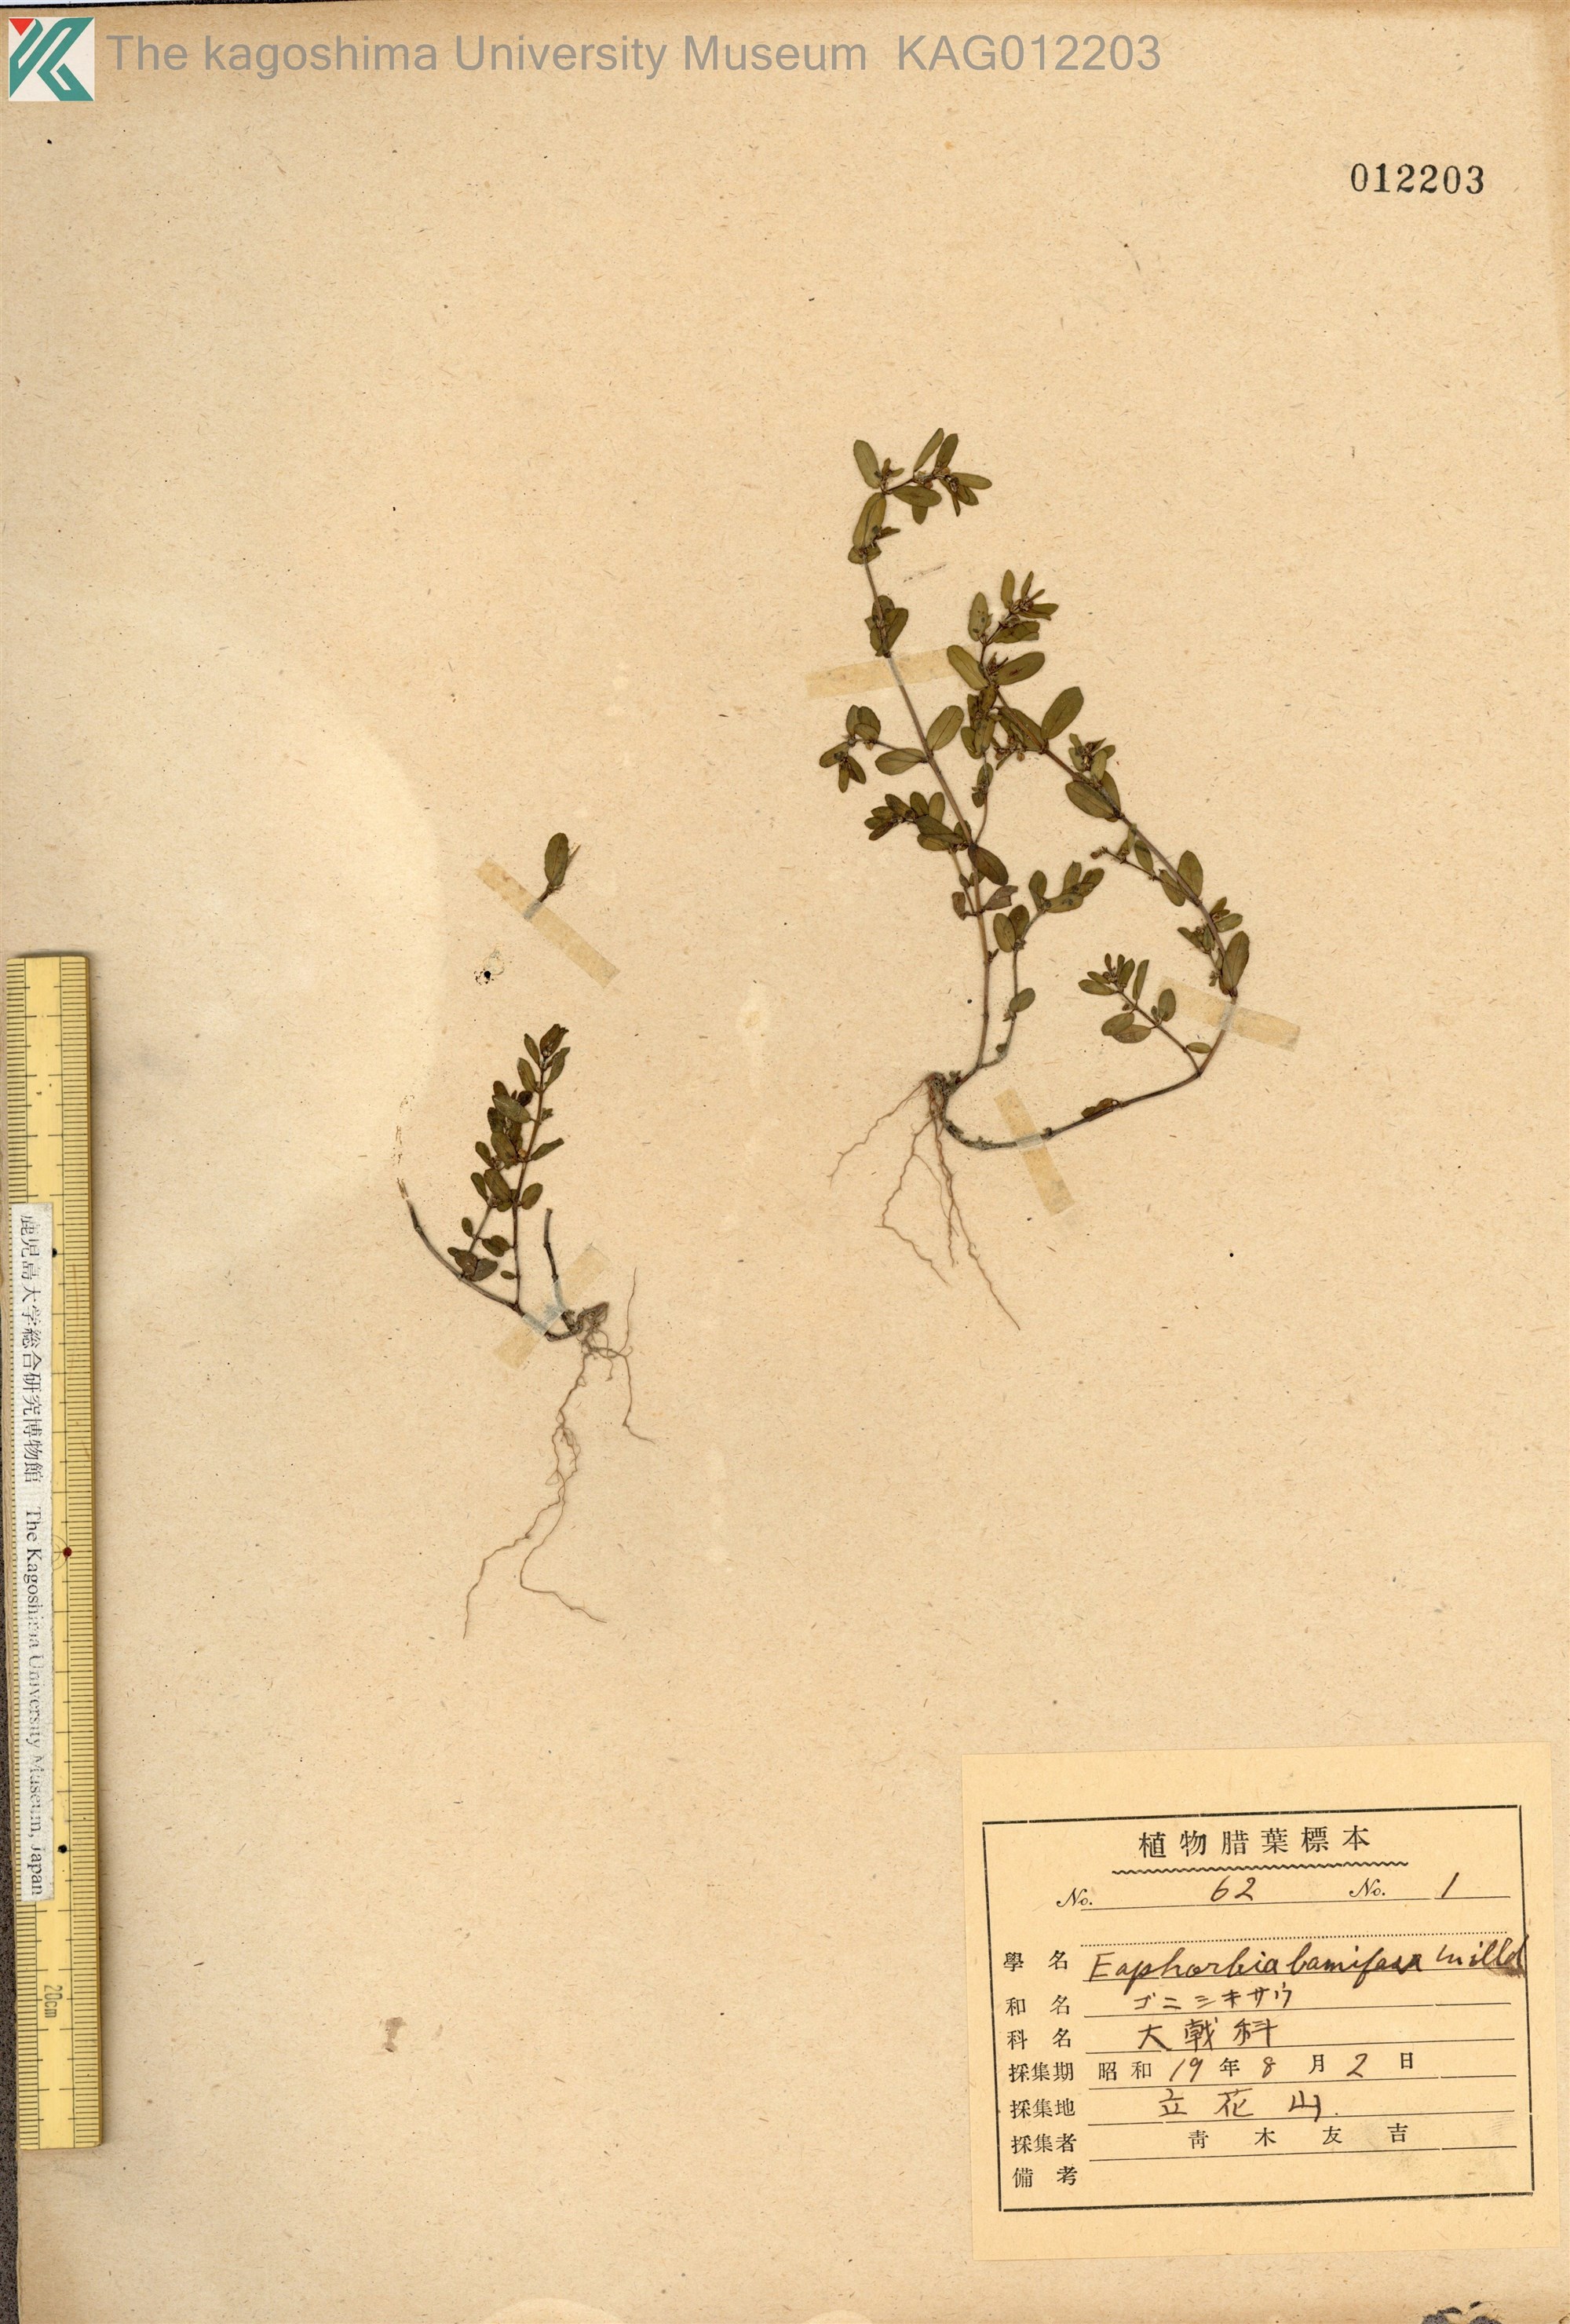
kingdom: Plantae
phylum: Tracheophyta
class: Magnoliopsida
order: Malpighiales
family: Euphorbiaceae
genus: Euphorbia
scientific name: Euphorbia maculata
